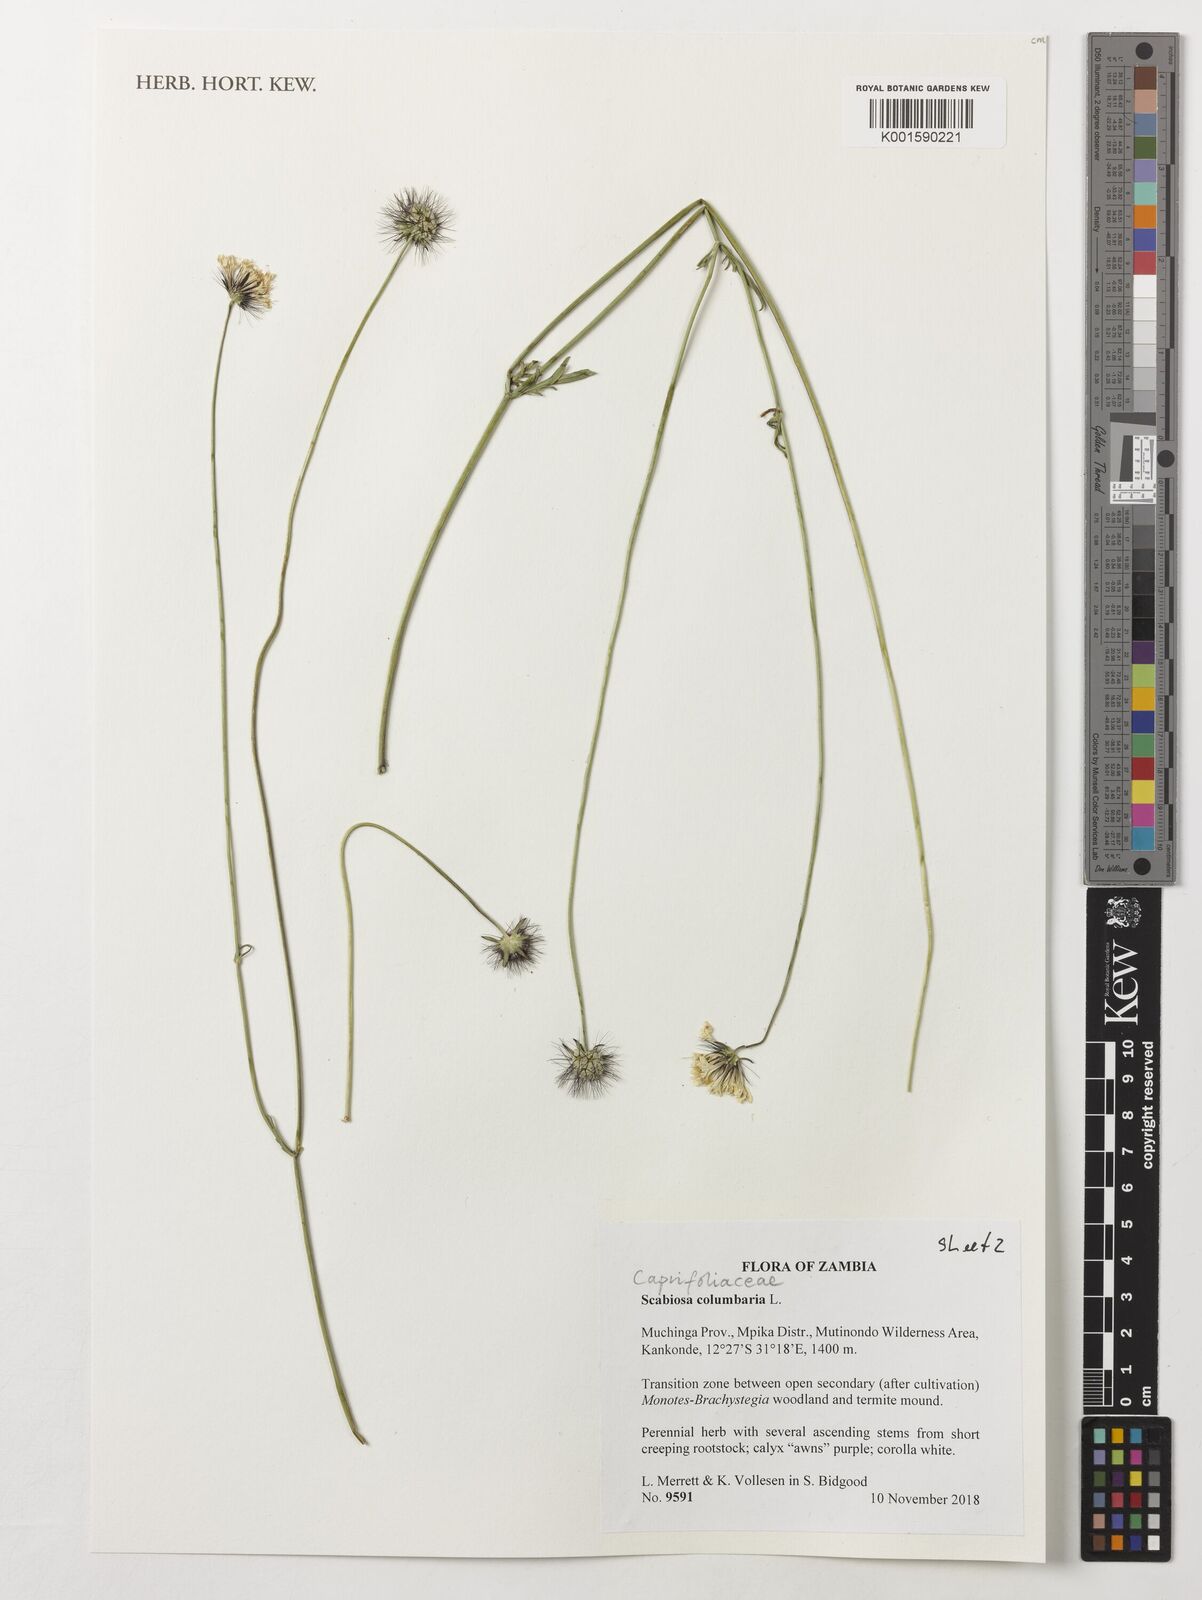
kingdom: Plantae
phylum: Tracheophyta
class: Magnoliopsida
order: Dipsacales
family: Caprifoliaceae
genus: Scabiosa
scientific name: Scabiosa columbaria
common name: Small scabious
